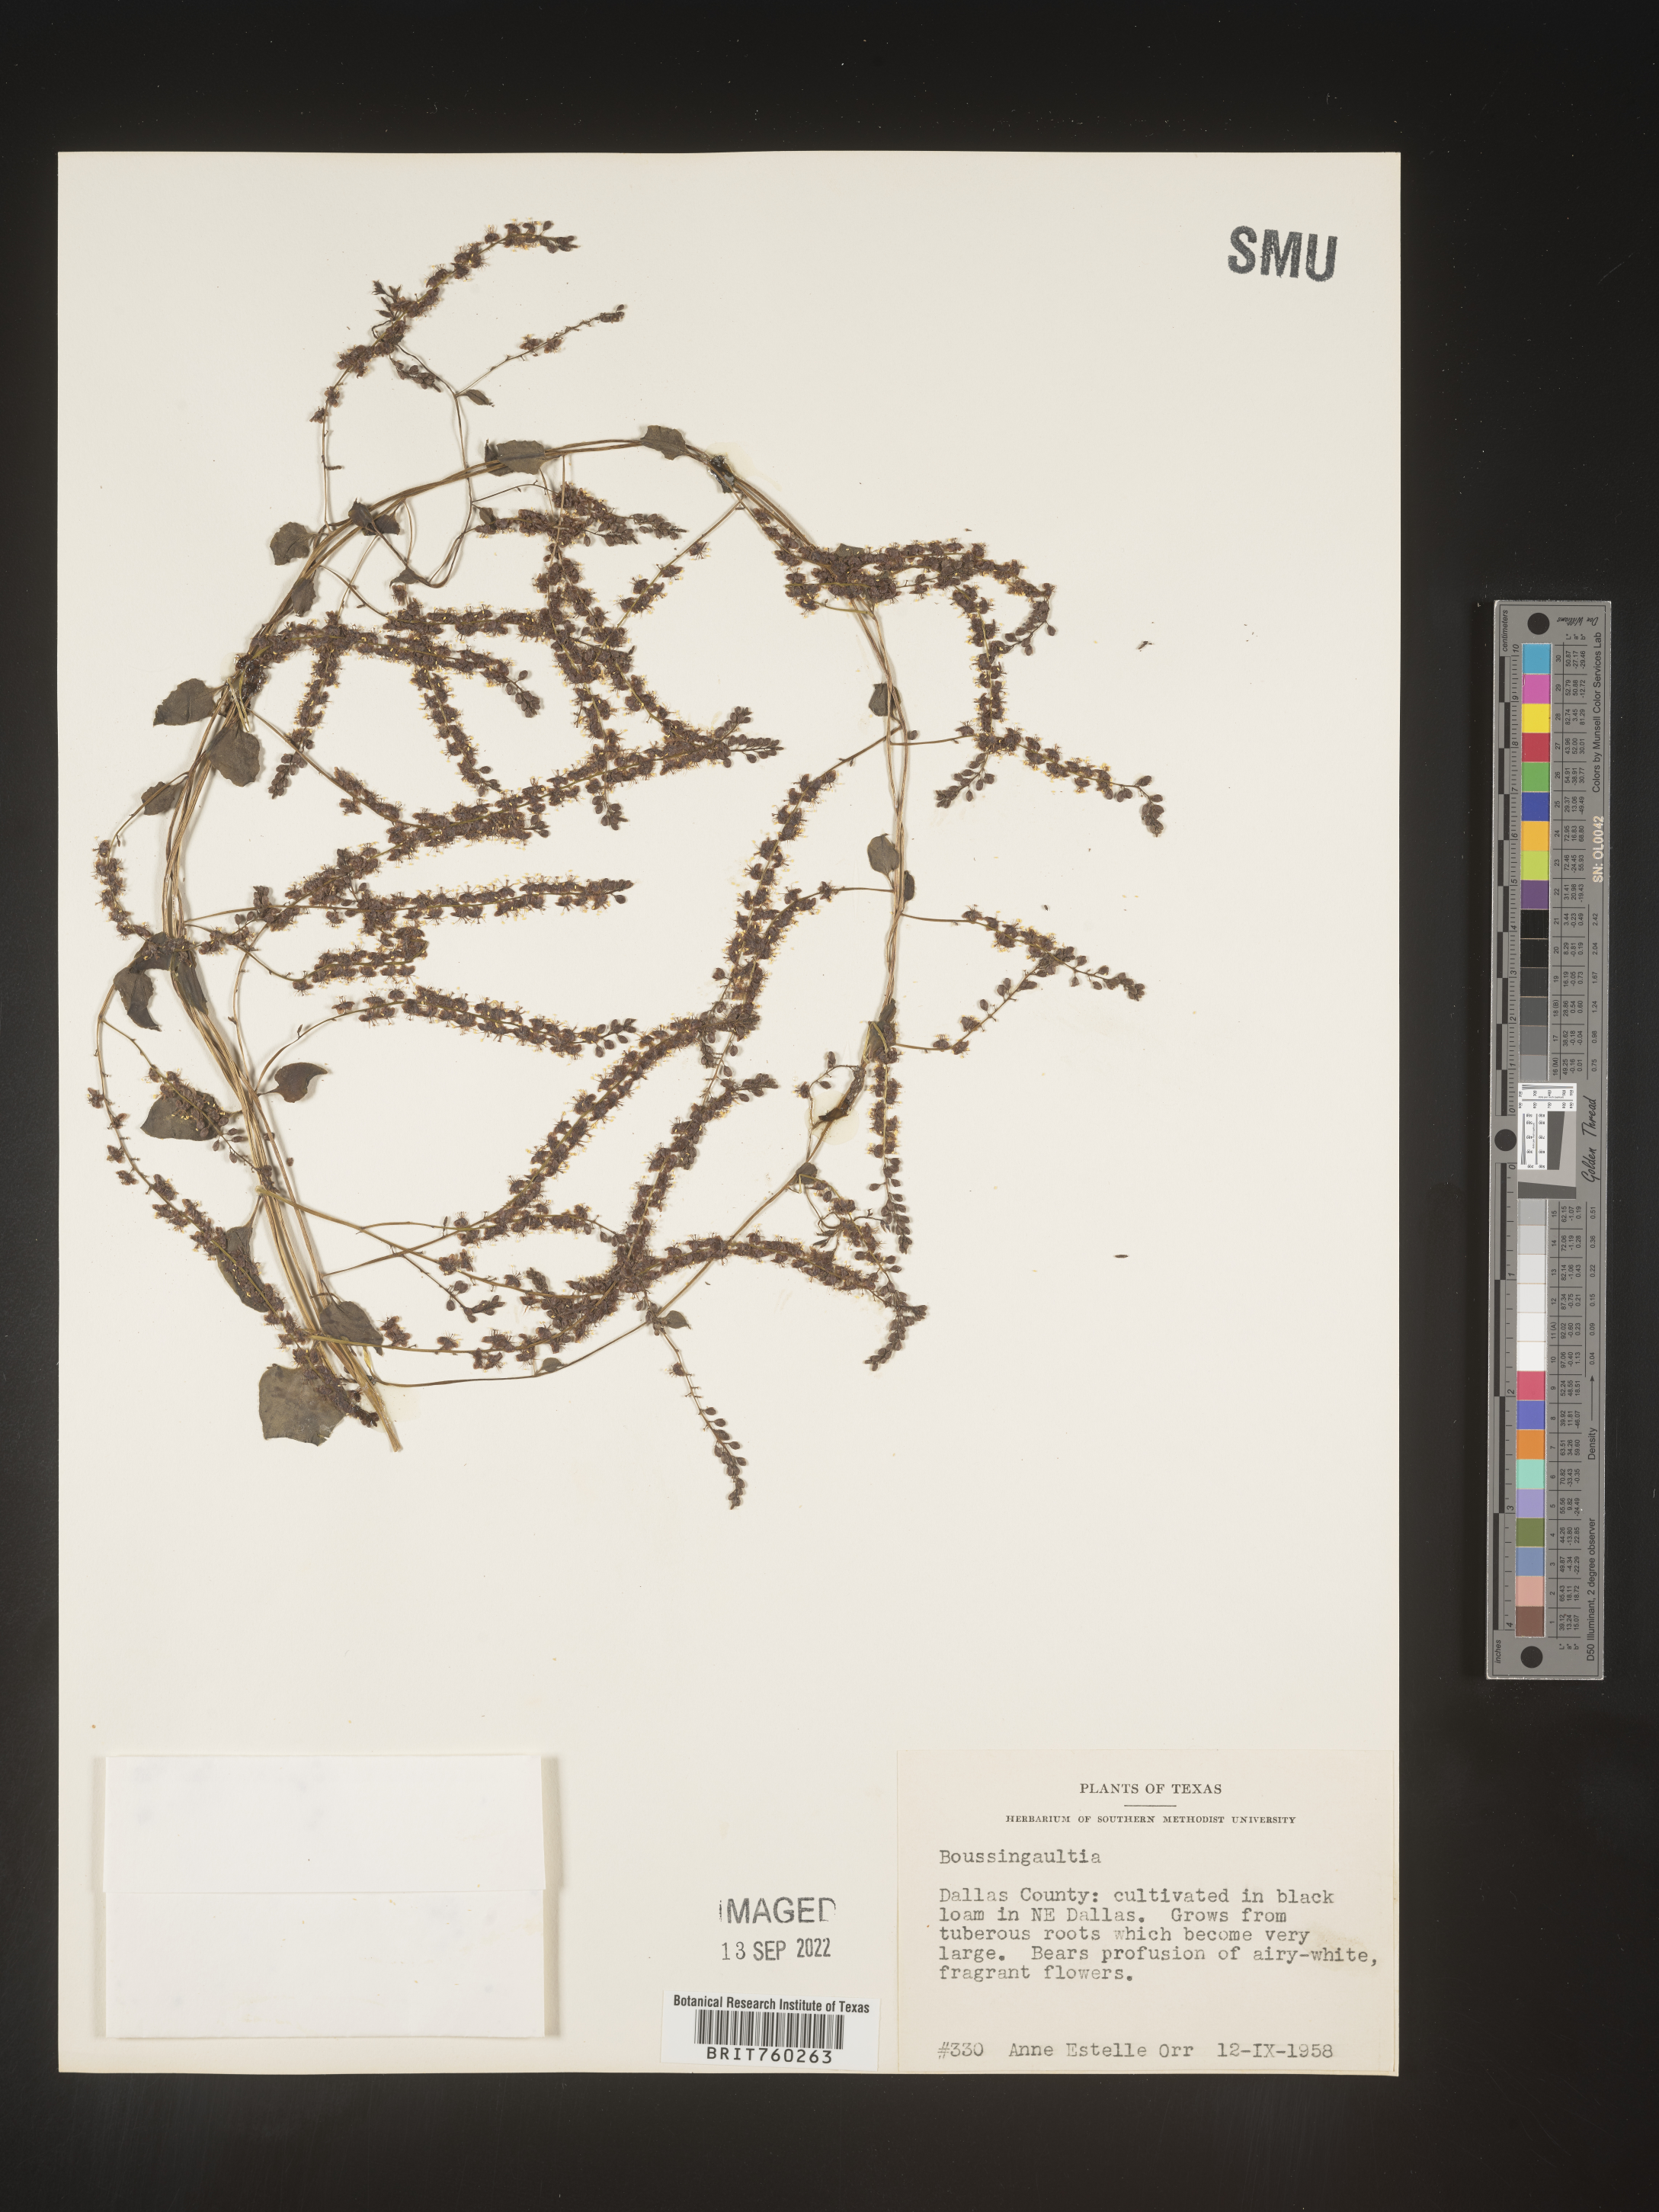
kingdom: Plantae
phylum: Tracheophyta
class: Magnoliopsida
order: Caryophyllales
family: Basellaceae
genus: Anredera
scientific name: Anredera
